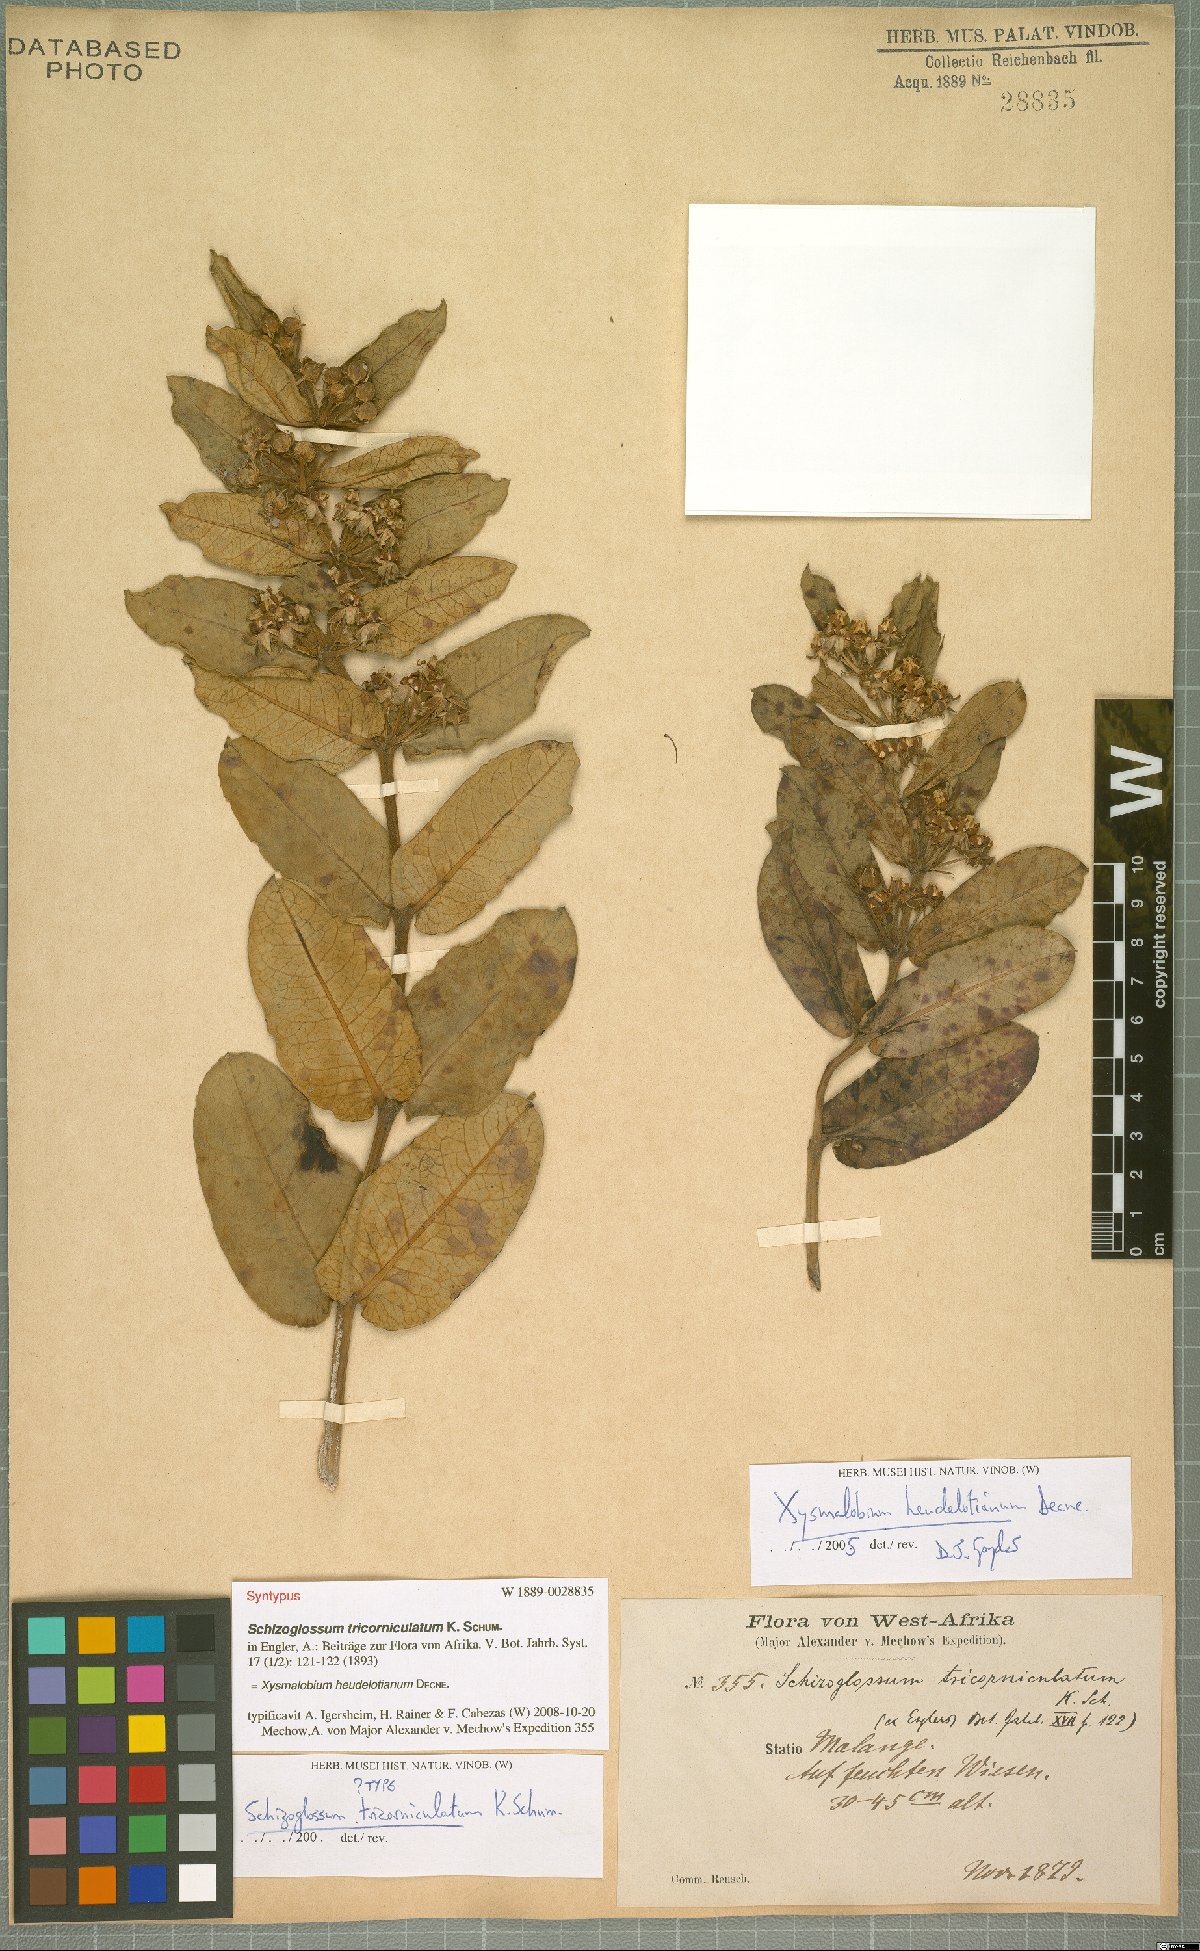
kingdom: Plantae
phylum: Tracheophyta
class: Magnoliopsida
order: Gentianales
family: Apocynaceae
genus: Xysmalobium
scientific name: Xysmalobium heudelotianum
